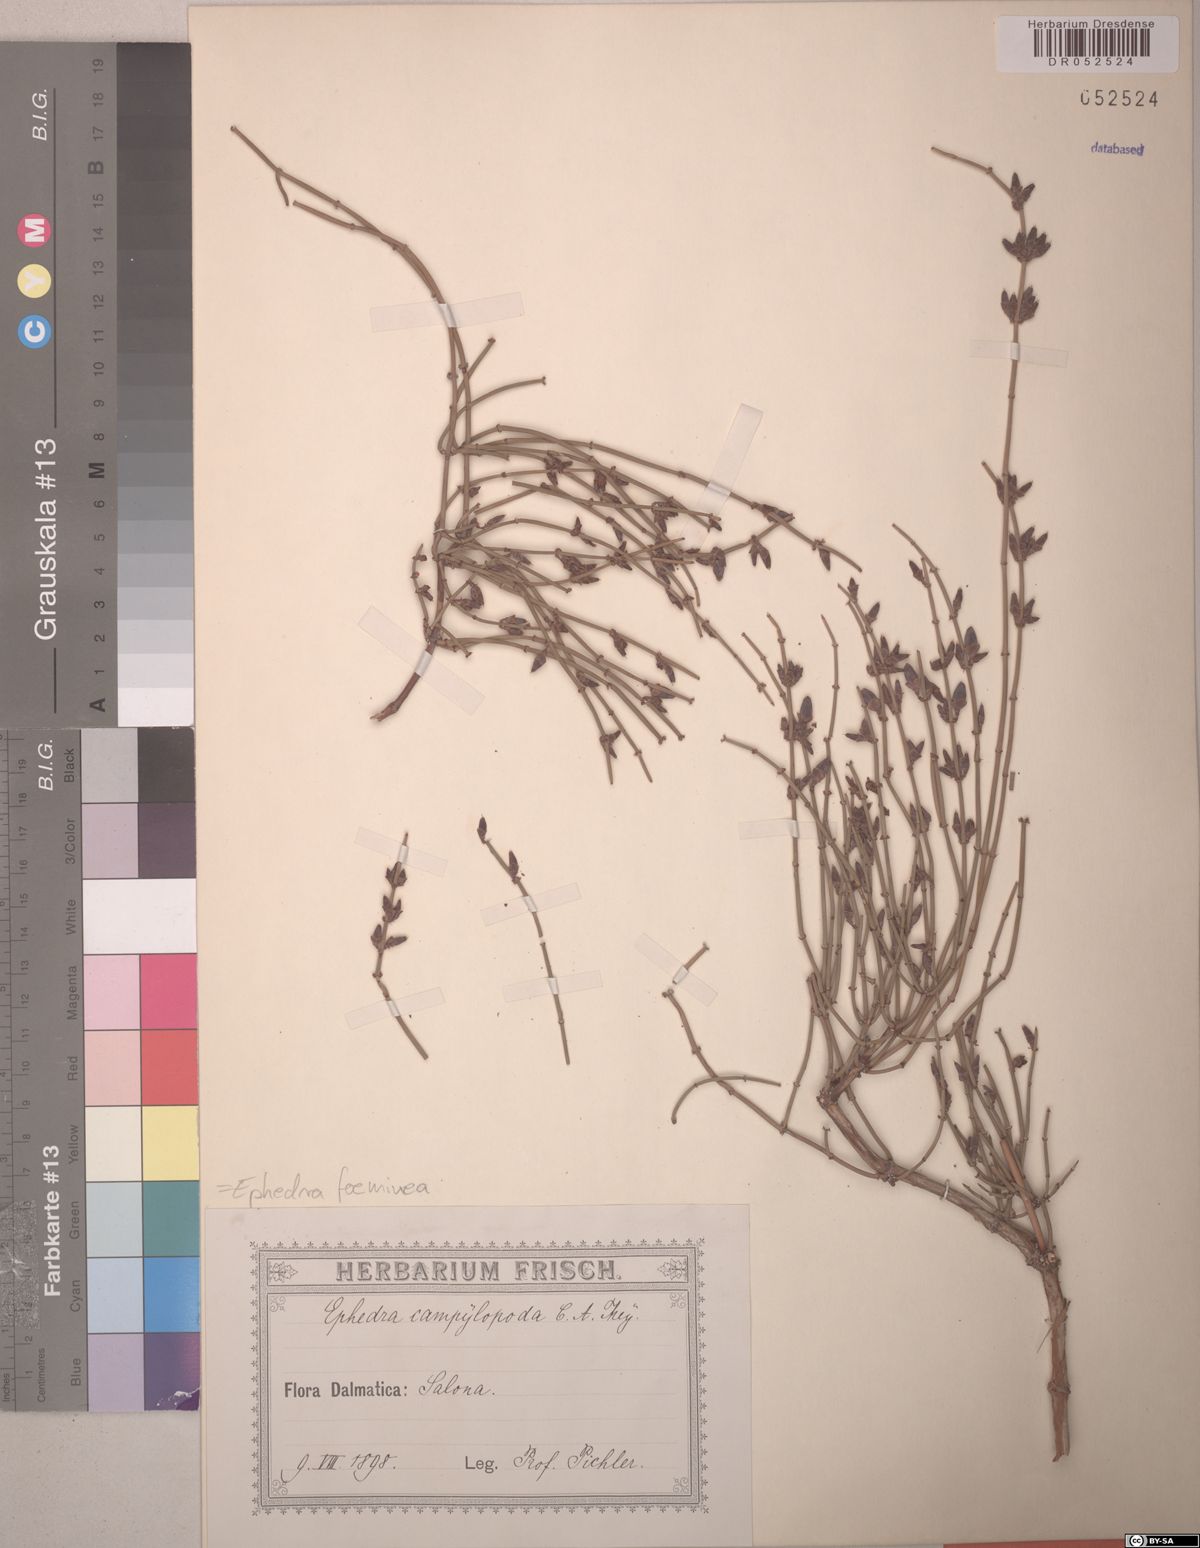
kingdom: Plantae
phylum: Tracheophyta
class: Gnetopsida
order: Ephedrales
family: Ephedraceae
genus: Ephedra
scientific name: Ephedra foeminea
